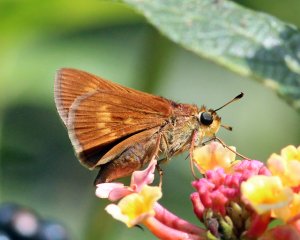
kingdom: Animalia
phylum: Arthropoda
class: Insecta
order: Lepidoptera
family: Hesperiidae
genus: Wallengrenia
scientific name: Wallengrenia otho
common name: Southern Broken-Dash
